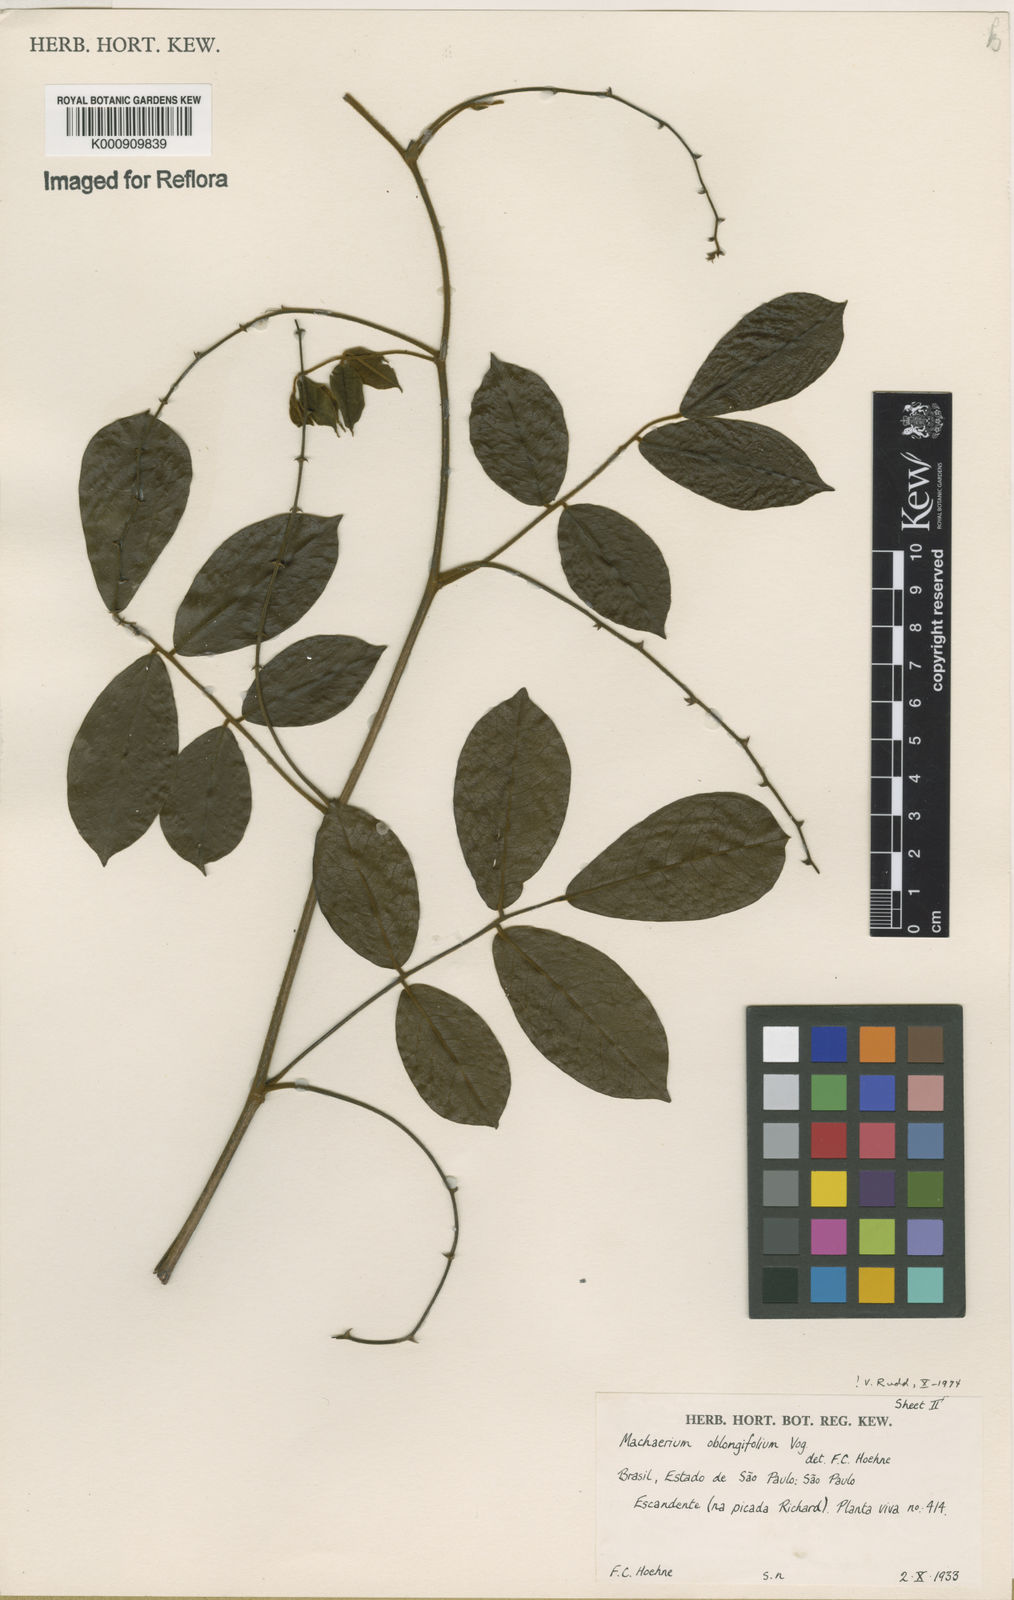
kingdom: Plantae
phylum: Tracheophyta
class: Magnoliopsida
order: Fabales
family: Fabaceae
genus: Machaerium
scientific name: Machaerium oblongifolium
